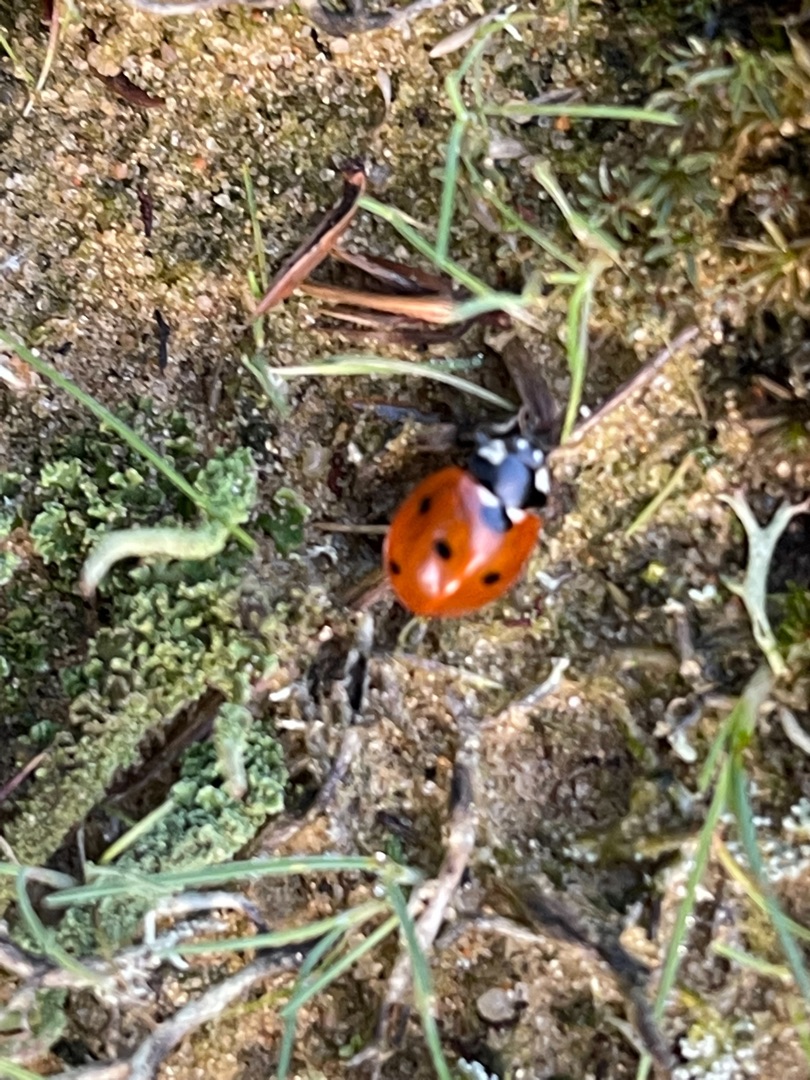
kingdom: Animalia
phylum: Arthropoda
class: Insecta
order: Coleoptera
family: Coccinellidae
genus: Coccinella
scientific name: Coccinella septempunctata
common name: Syvplettet mariehøne
